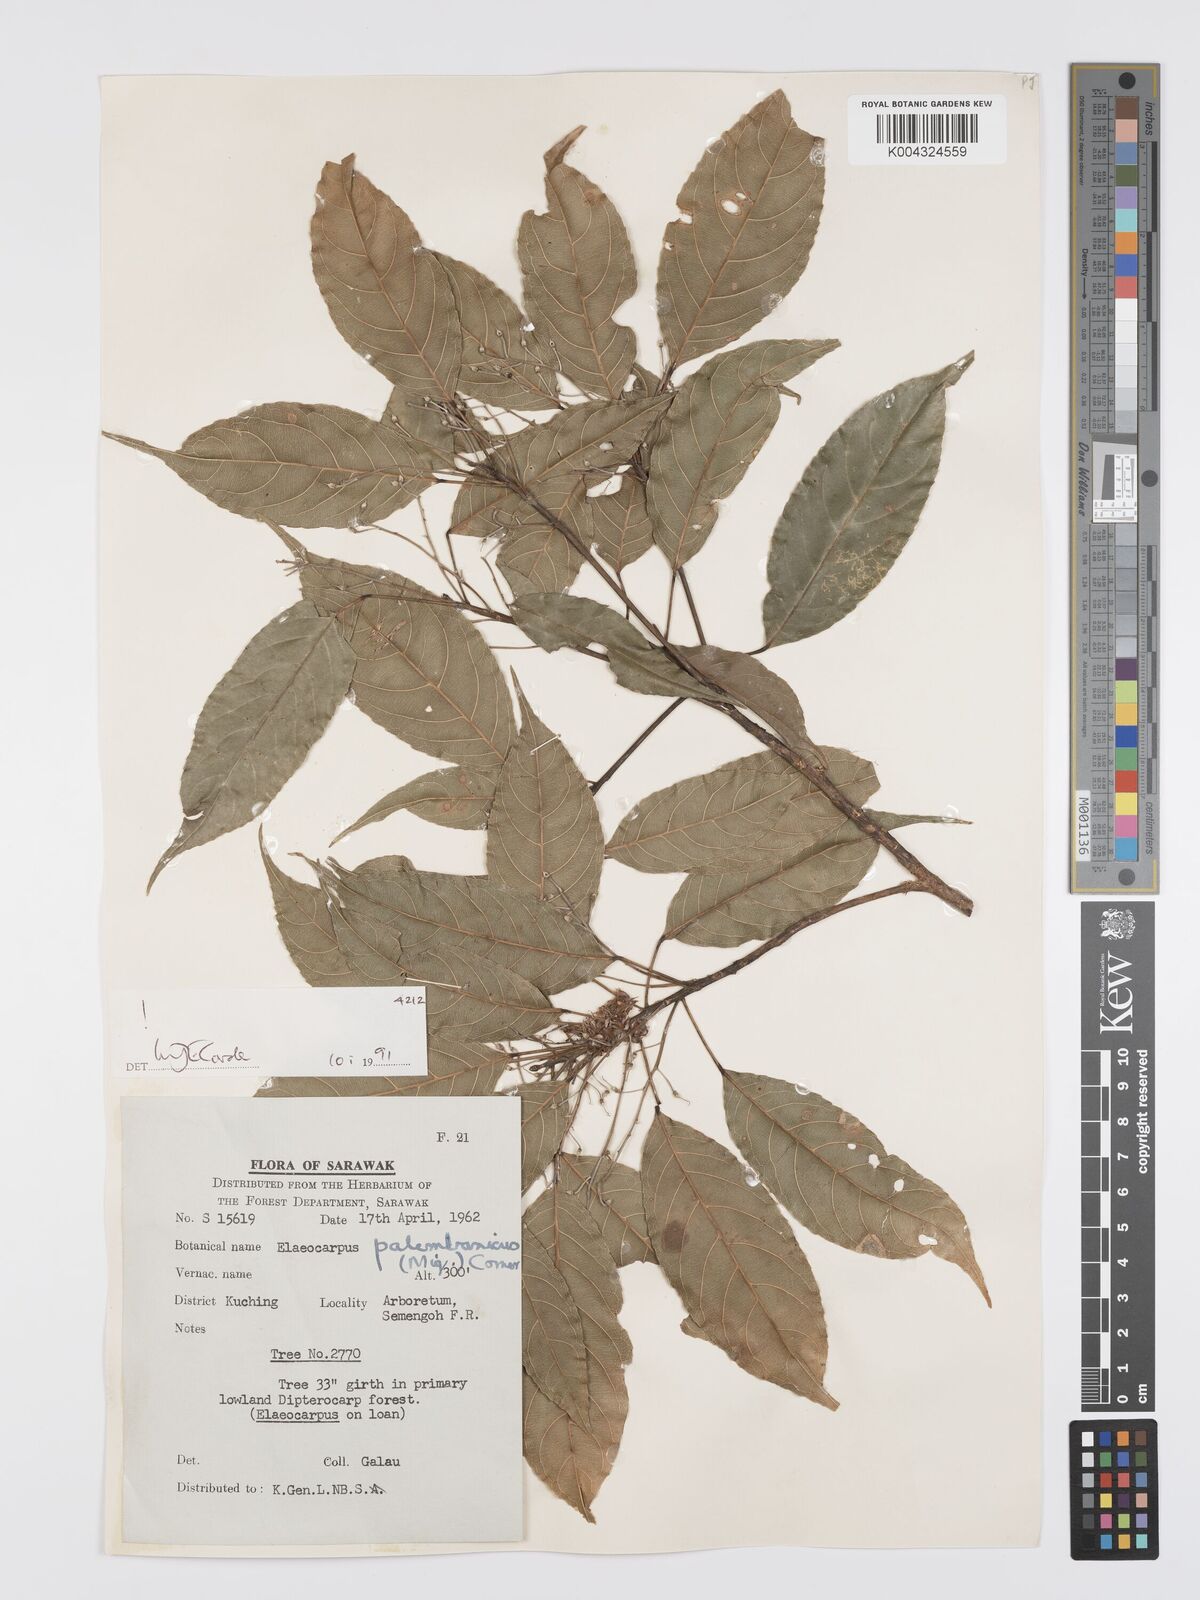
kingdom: Plantae
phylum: Tracheophyta
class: Magnoliopsida
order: Oxalidales
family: Elaeocarpaceae
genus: Elaeocarpus
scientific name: Elaeocarpus palembanicus
